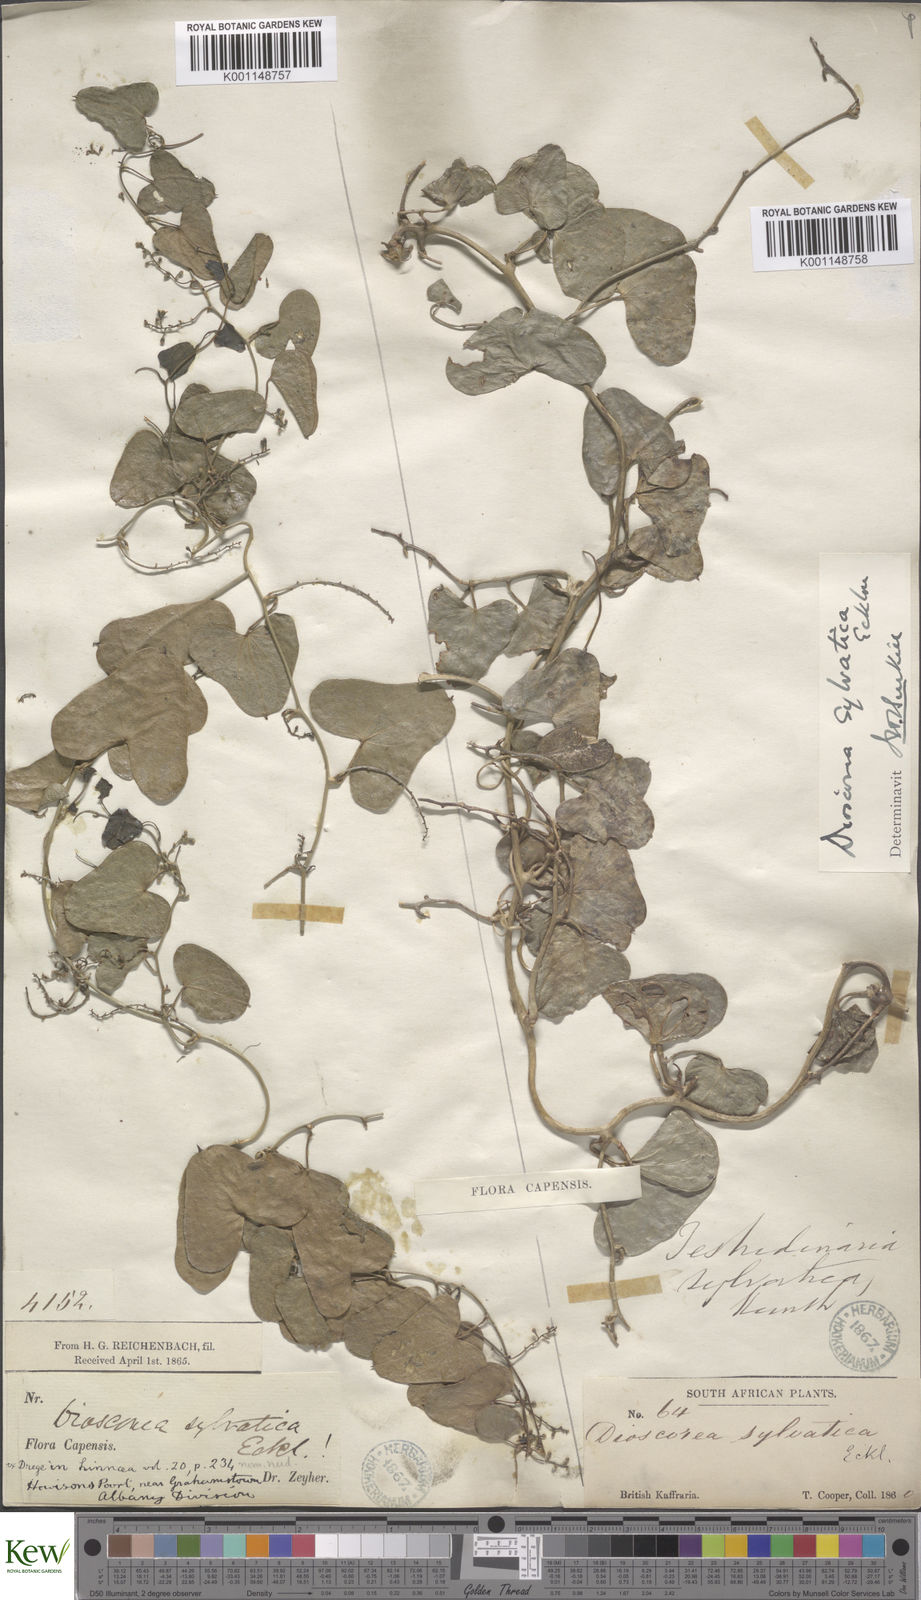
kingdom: Plantae
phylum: Tracheophyta
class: Liliopsida
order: Dioscoreales
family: Dioscoreaceae
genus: Dioscorea
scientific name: Dioscorea sylvatica
